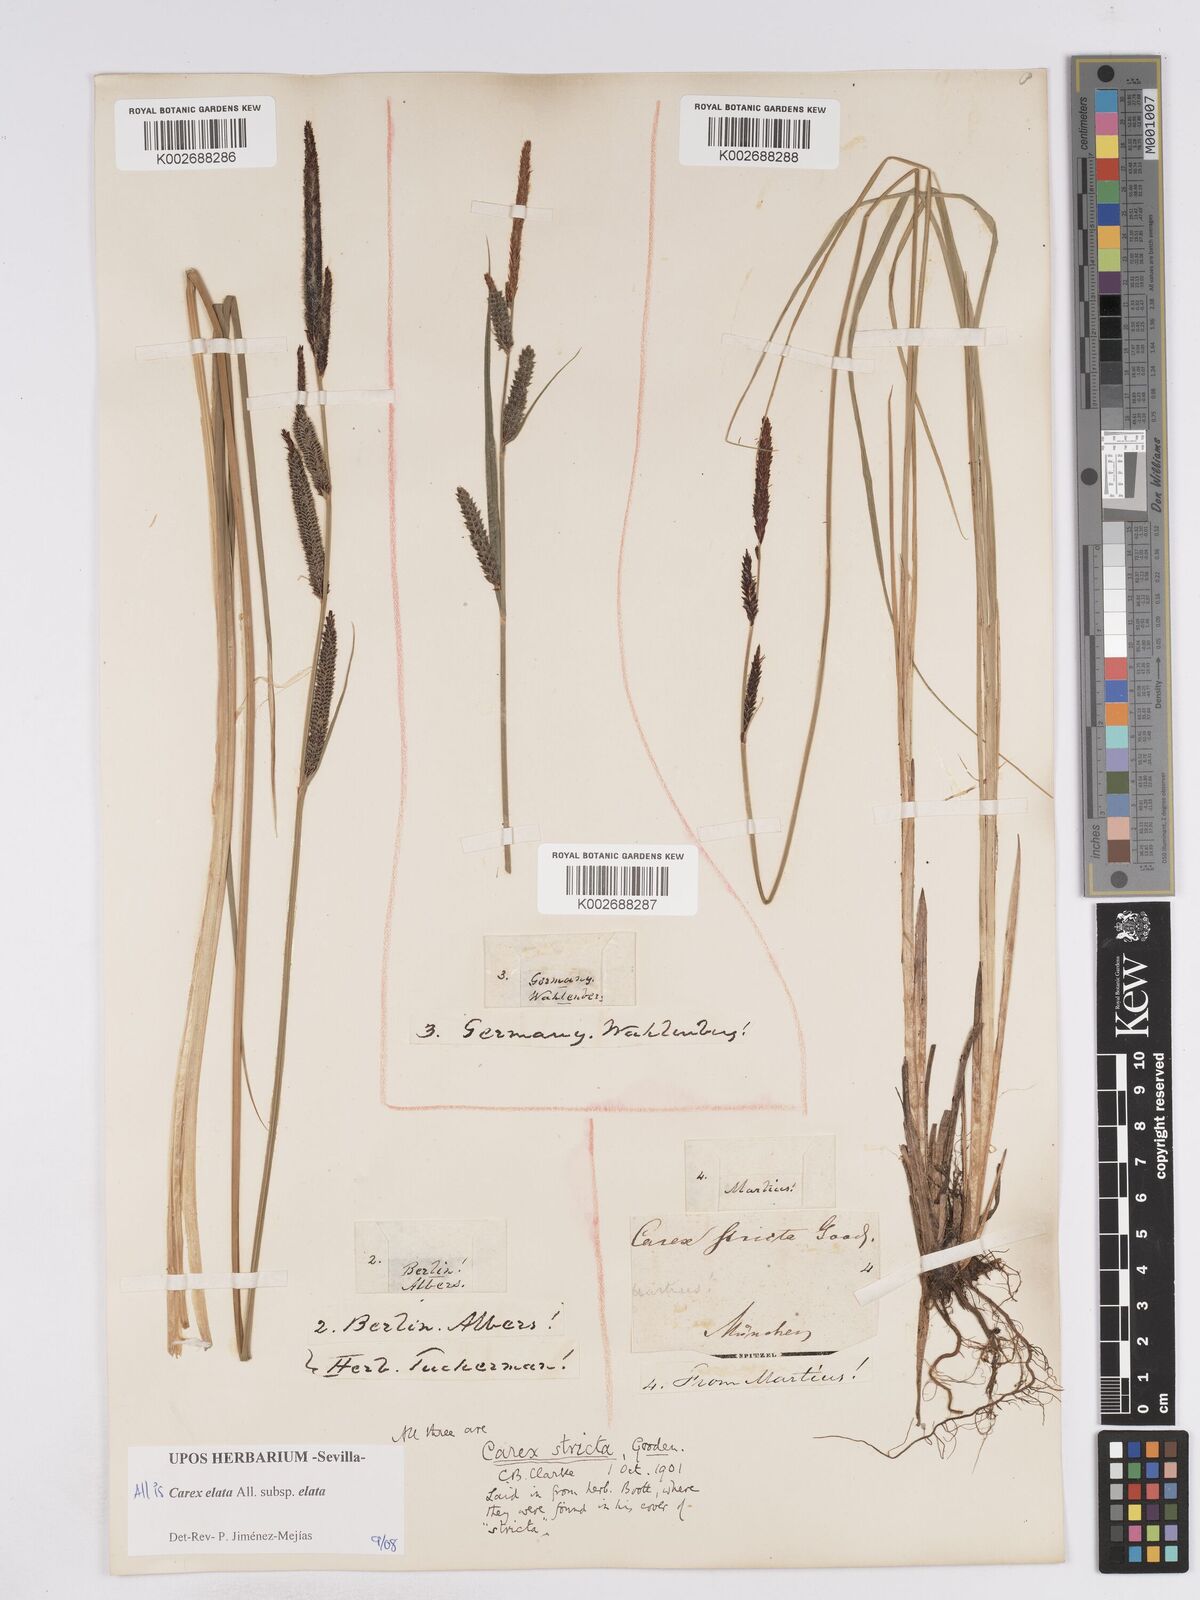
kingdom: Plantae
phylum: Tracheophyta
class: Liliopsida
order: Poales
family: Cyperaceae
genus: Carex
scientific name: Carex elata
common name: Tufted sedge
